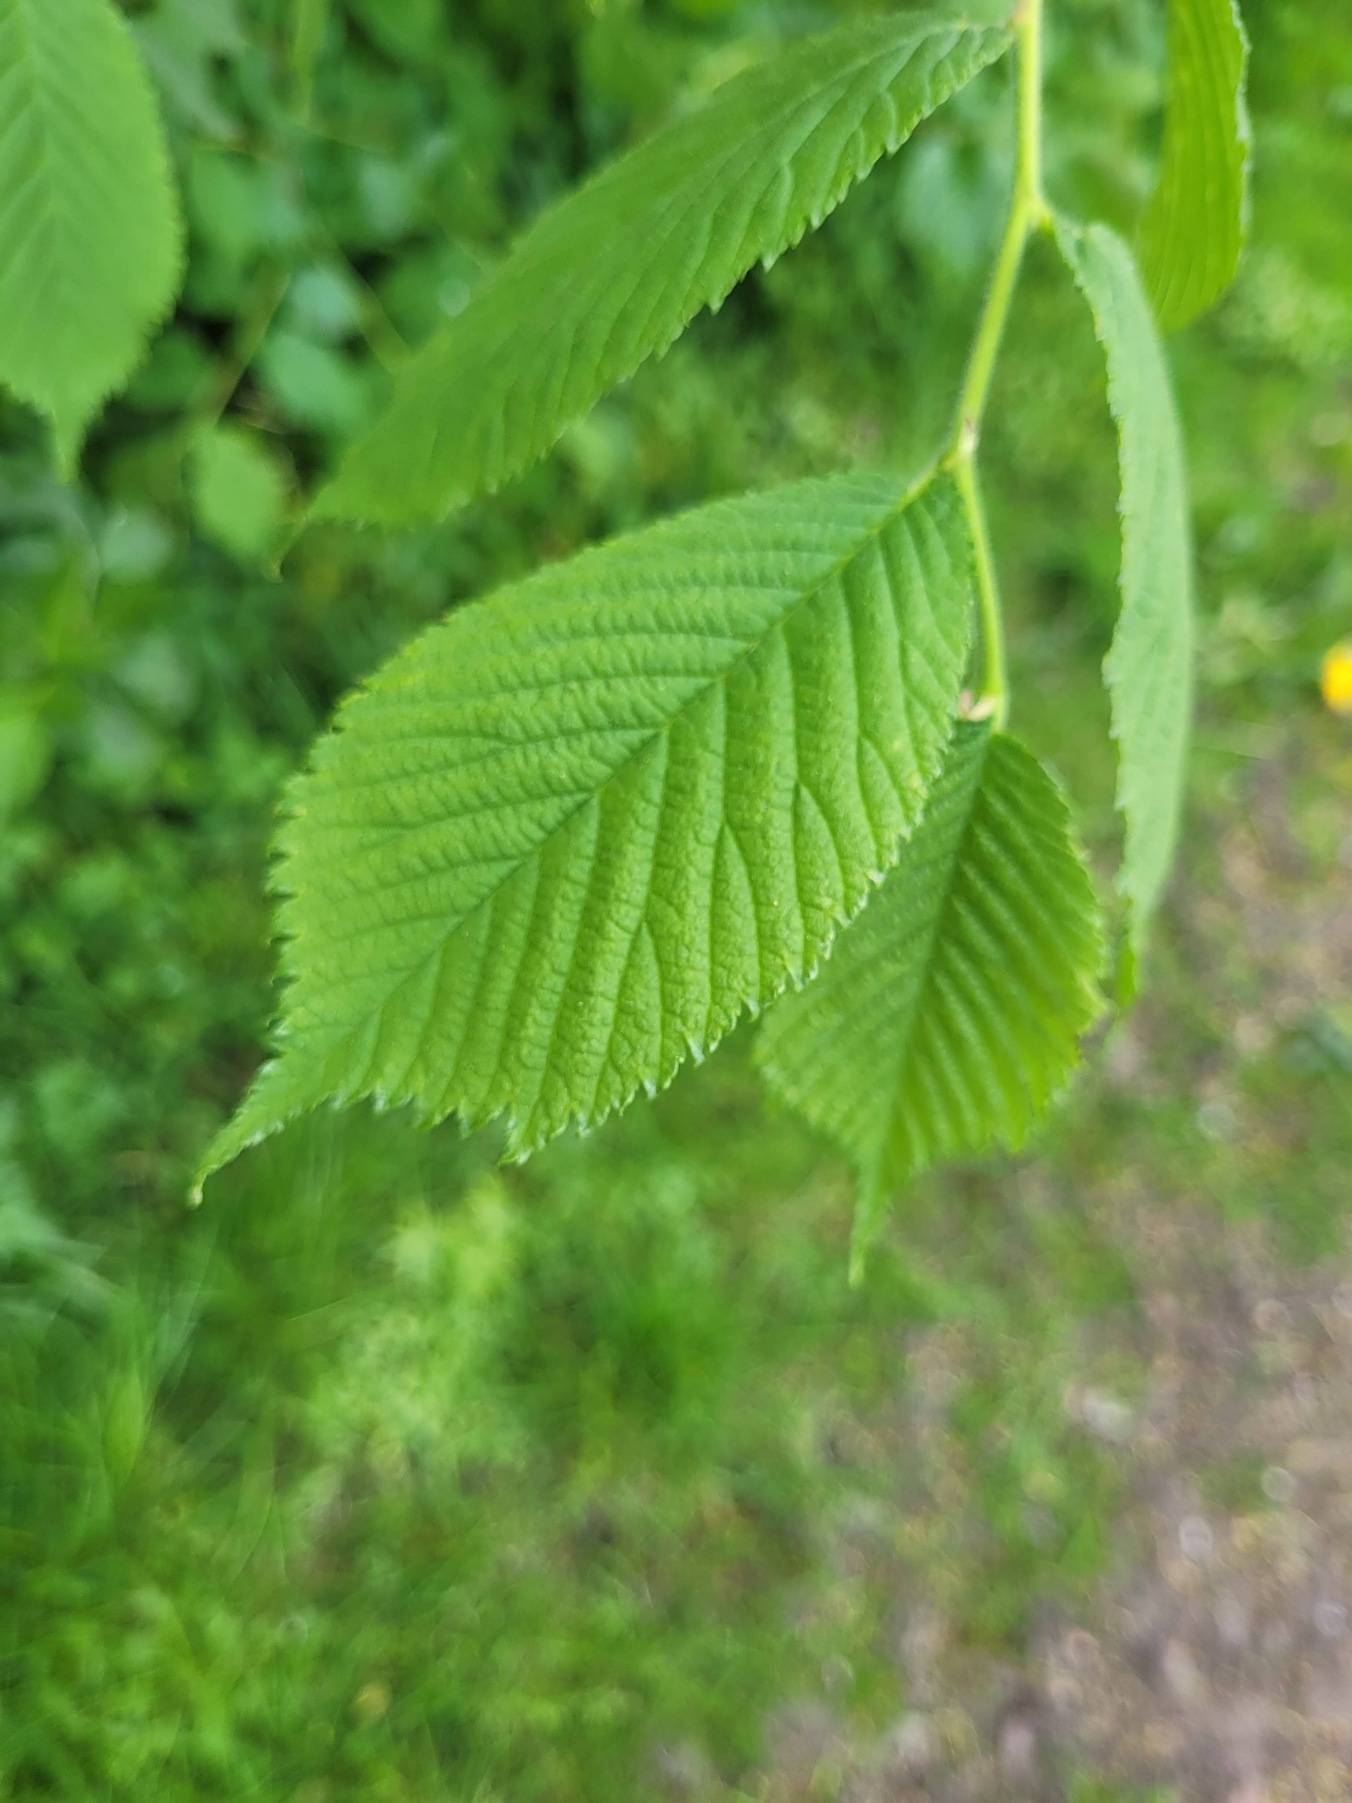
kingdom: Plantae
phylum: Tracheophyta
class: Magnoliopsida
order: Rosales
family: Ulmaceae
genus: Ulmus
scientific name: Ulmus glabra
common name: Skov-elm/storbladet elm
